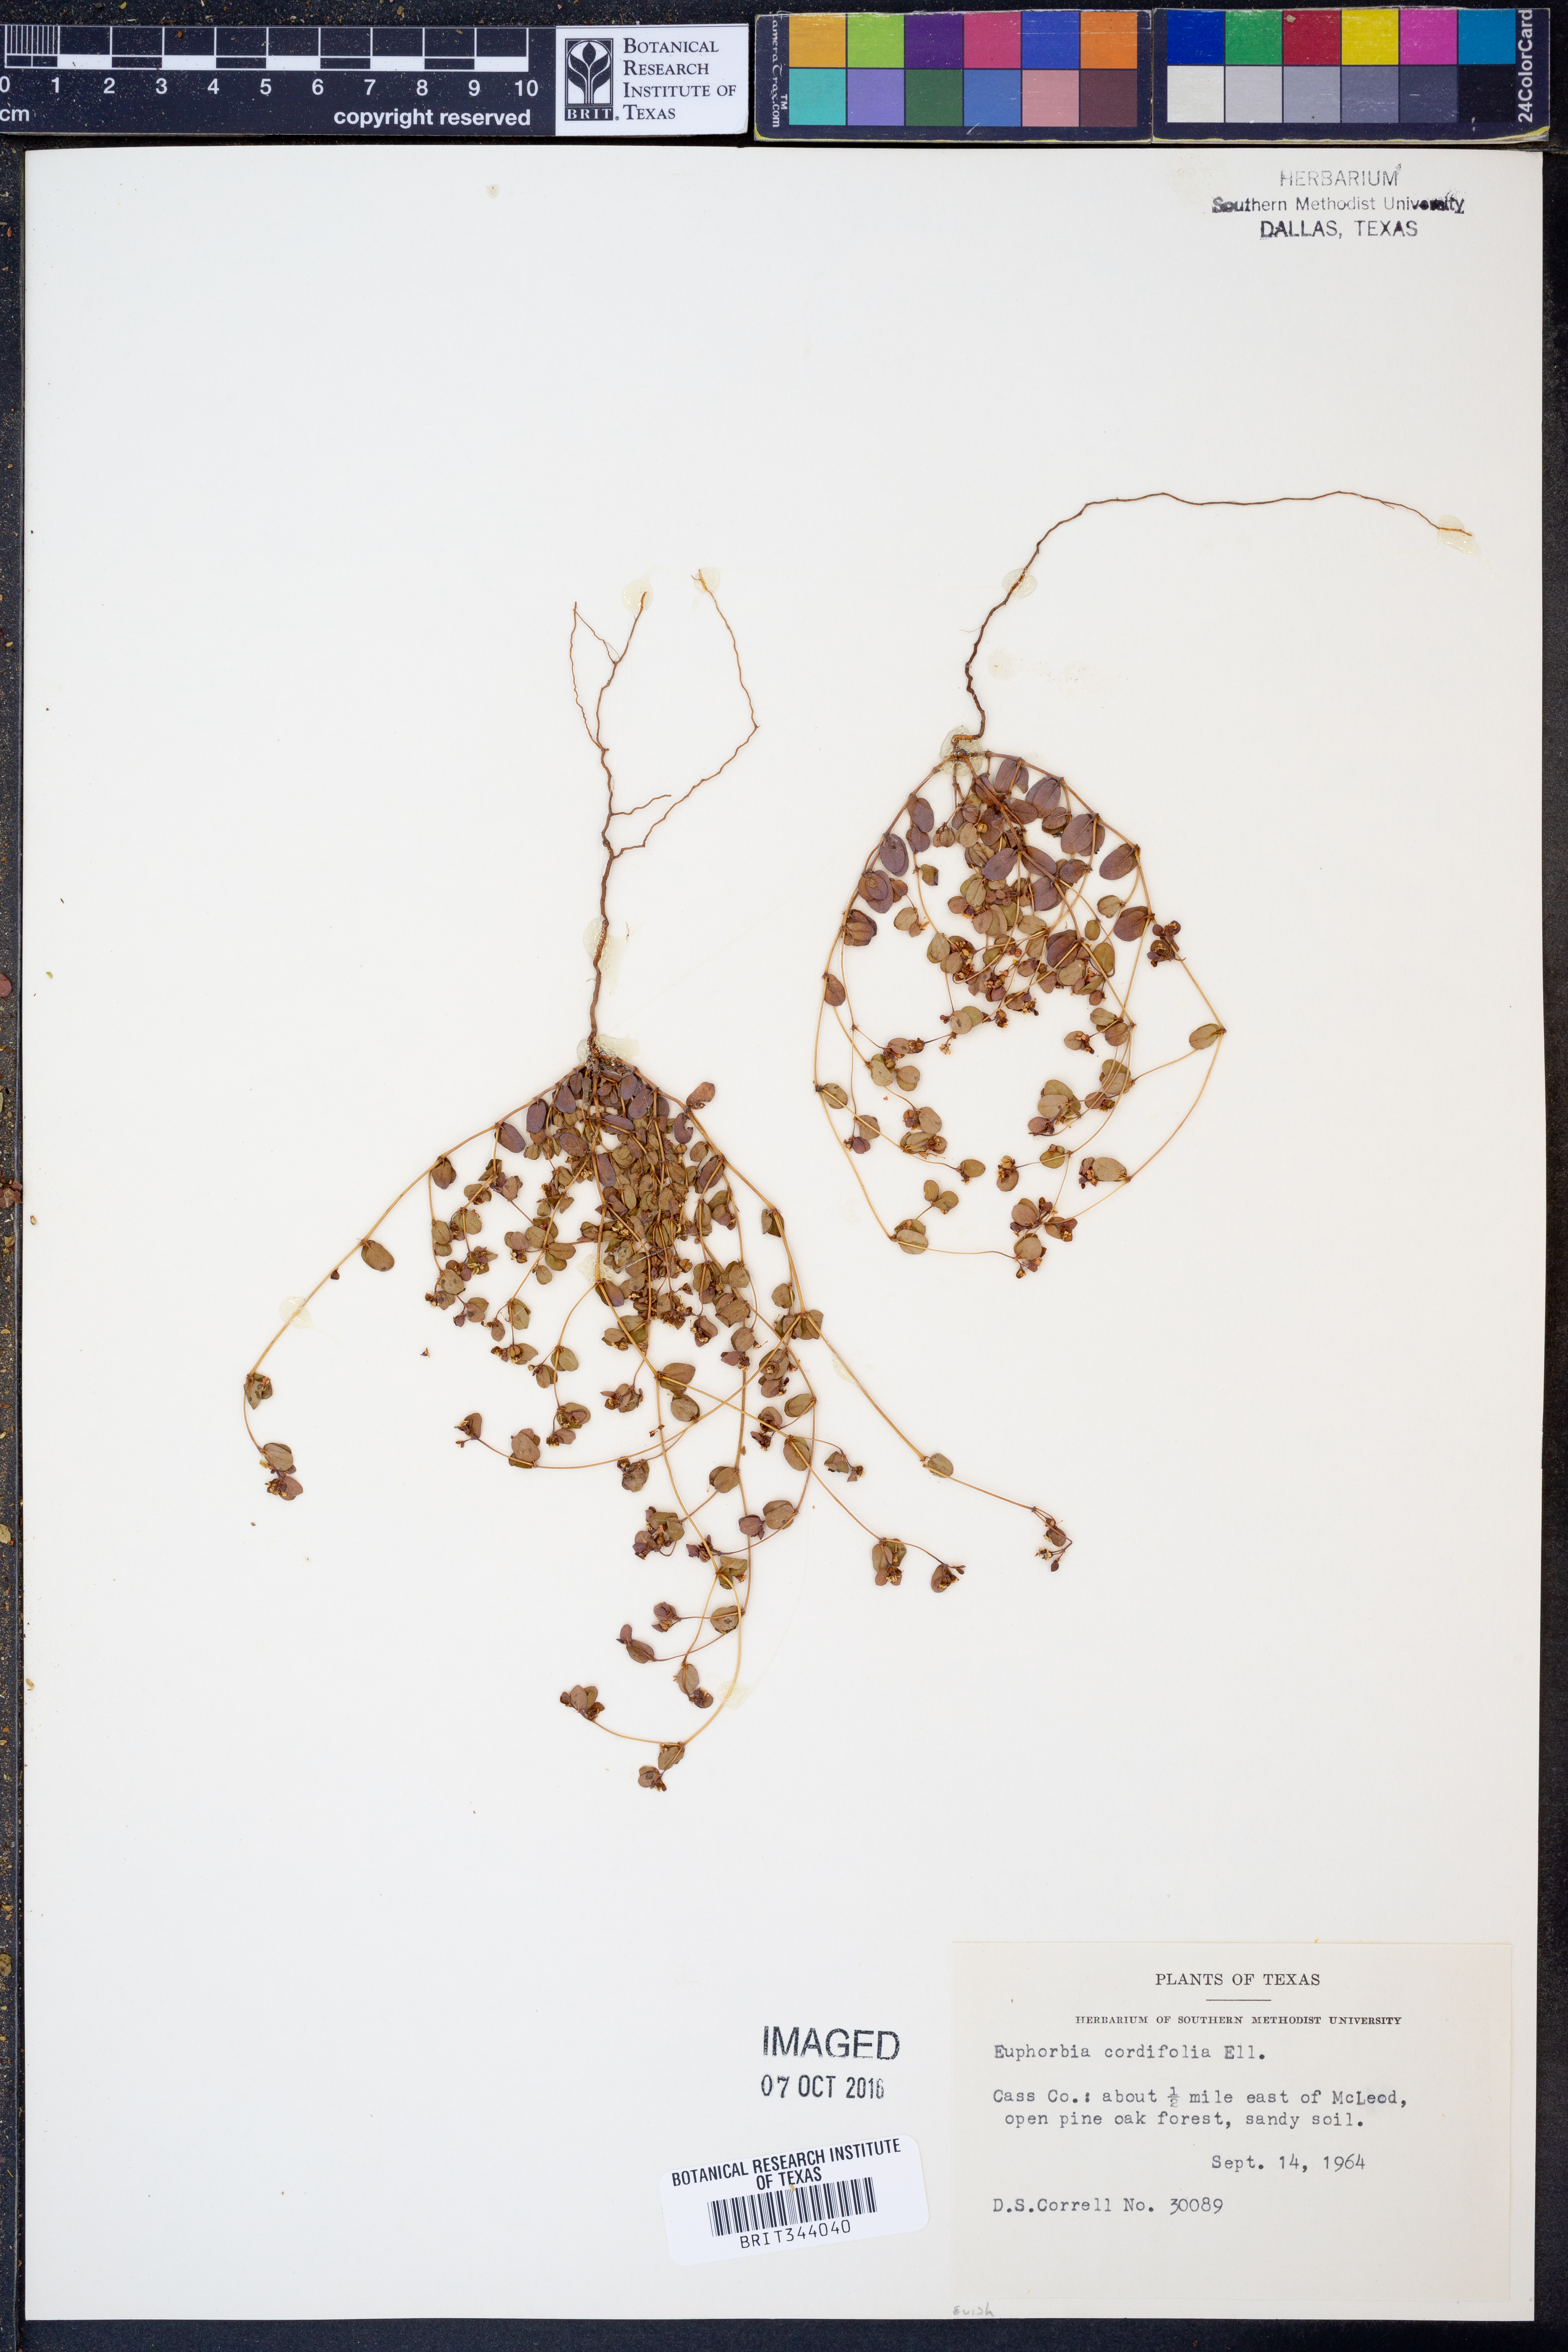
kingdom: Plantae
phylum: Tracheophyta
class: Magnoliopsida
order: Malpighiales
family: Euphorbiaceae
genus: Euphorbia
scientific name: Euphorbia cordifolia
